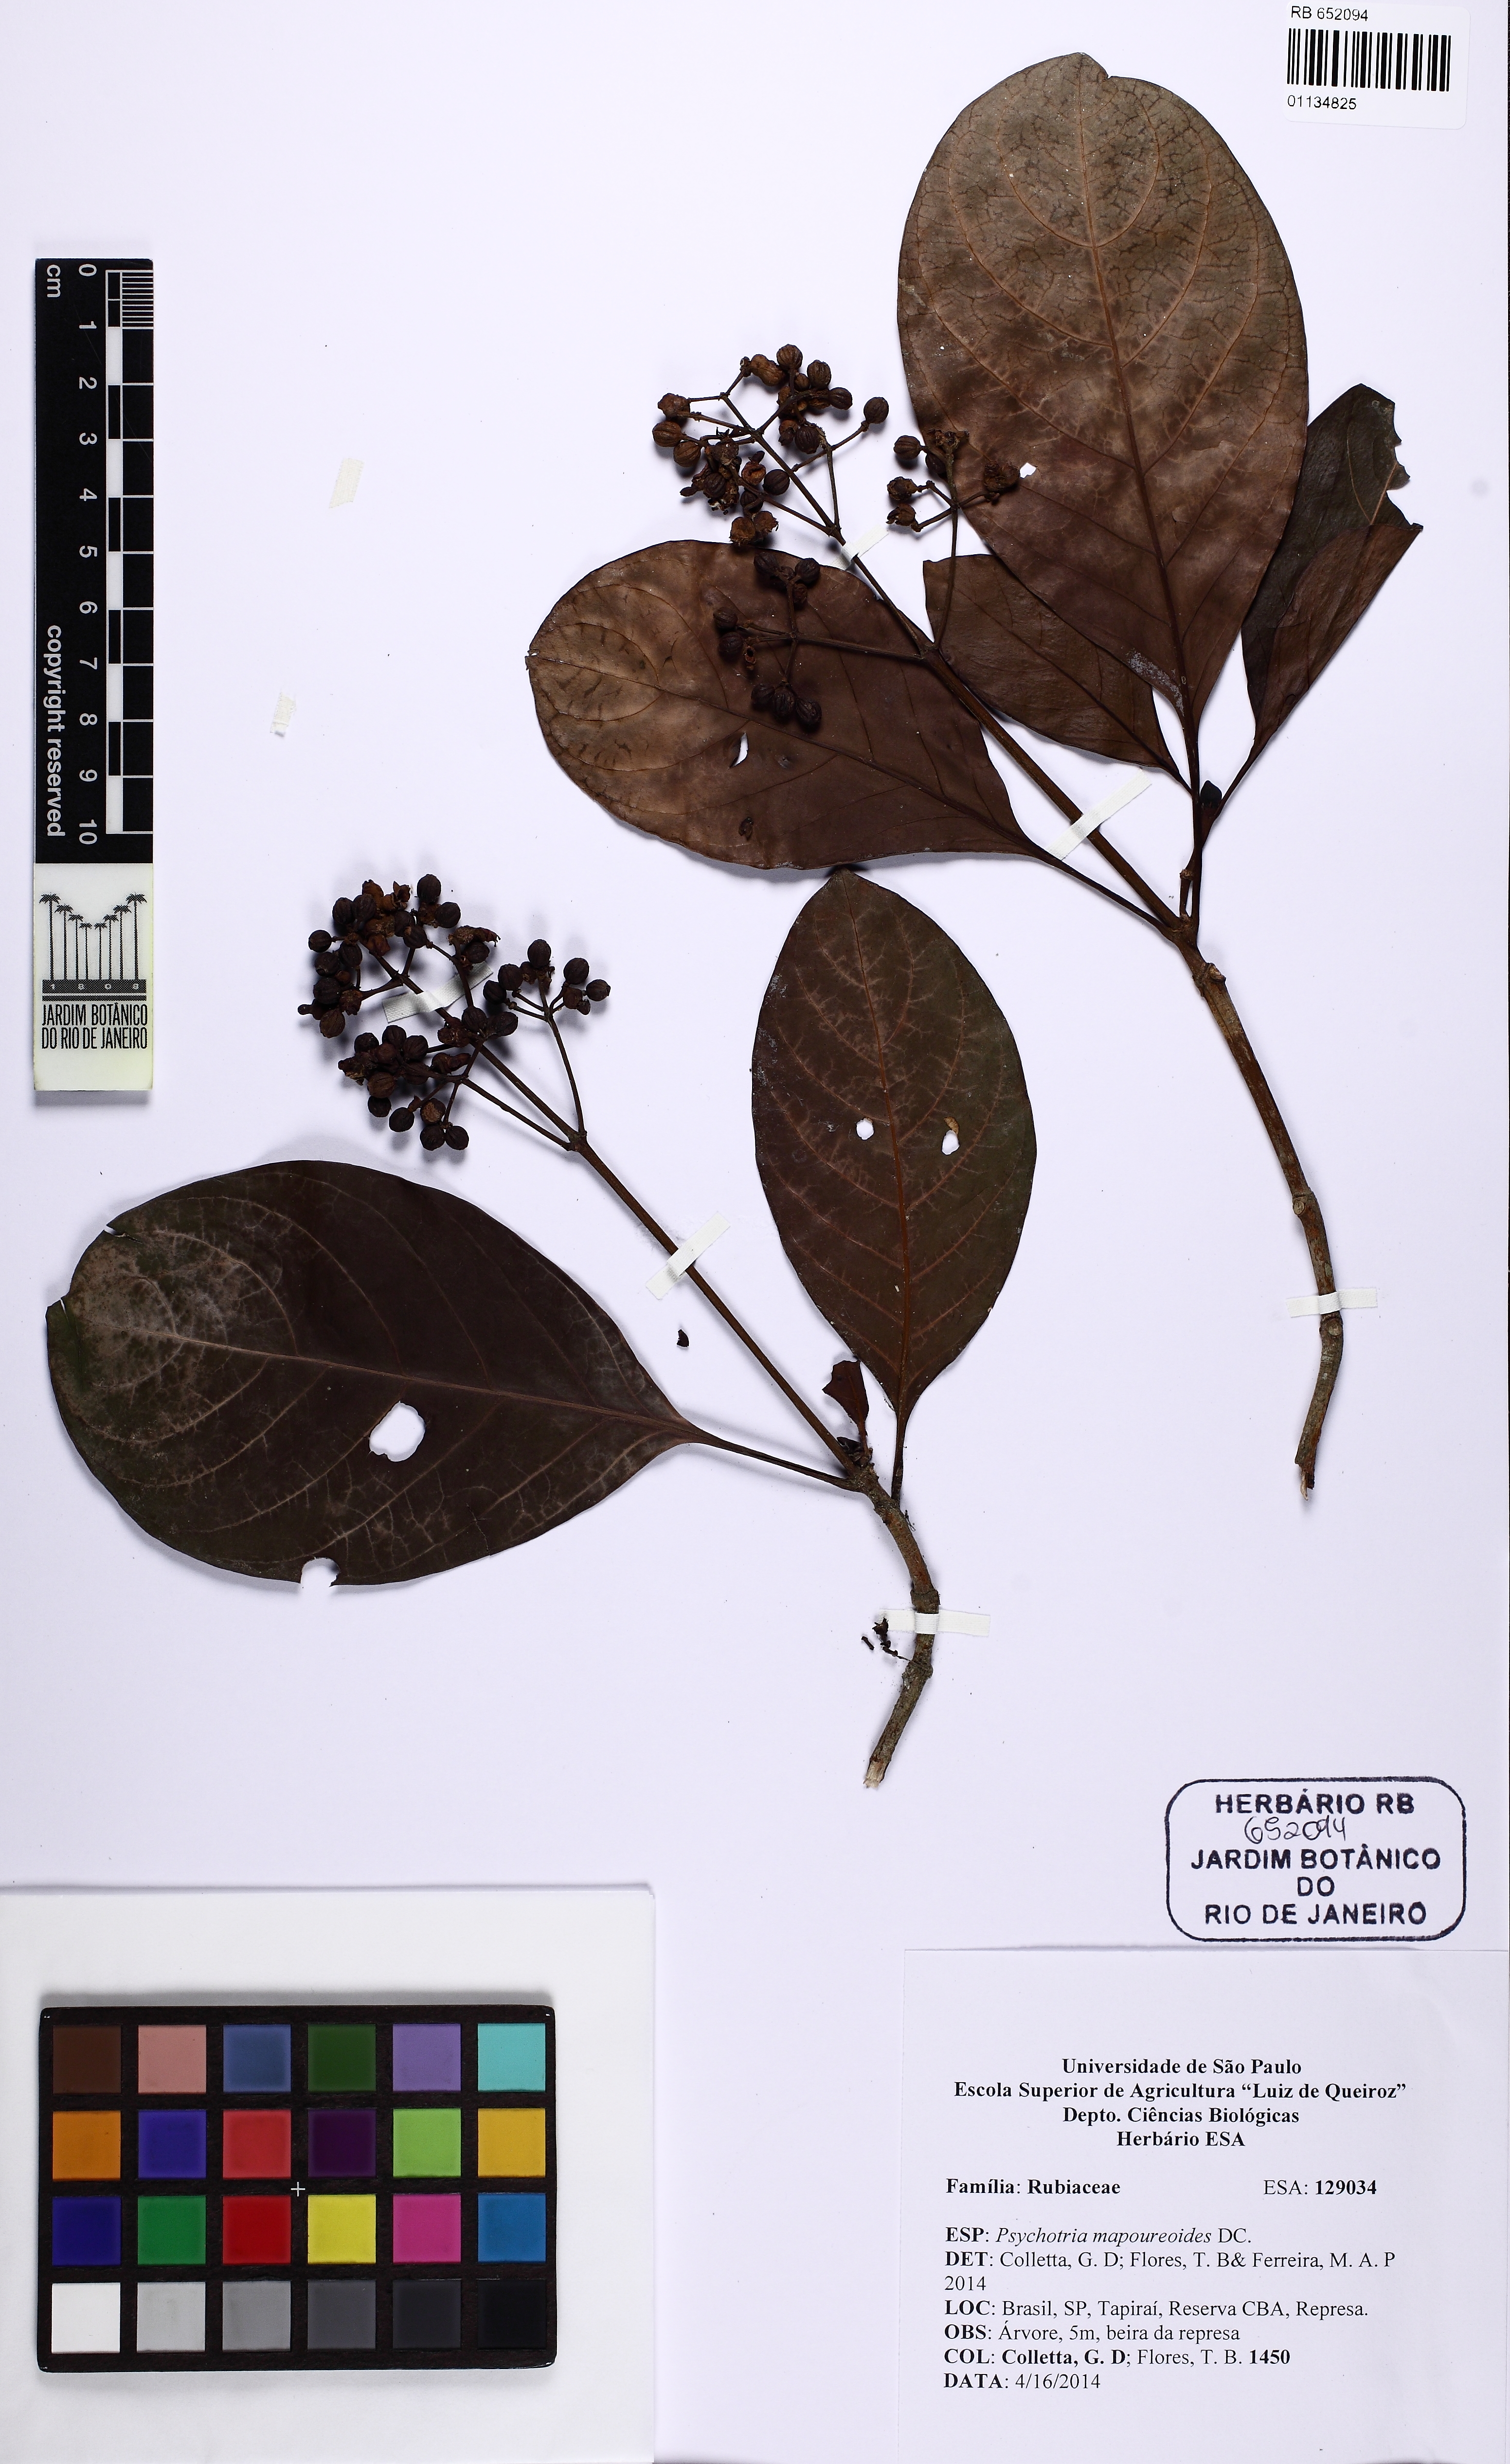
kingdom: Plantae
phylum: Tracheophyta
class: Magnoliopsida
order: Gentianales
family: Rubiaceae
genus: Psychotria
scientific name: Psychotria pedunculosa
